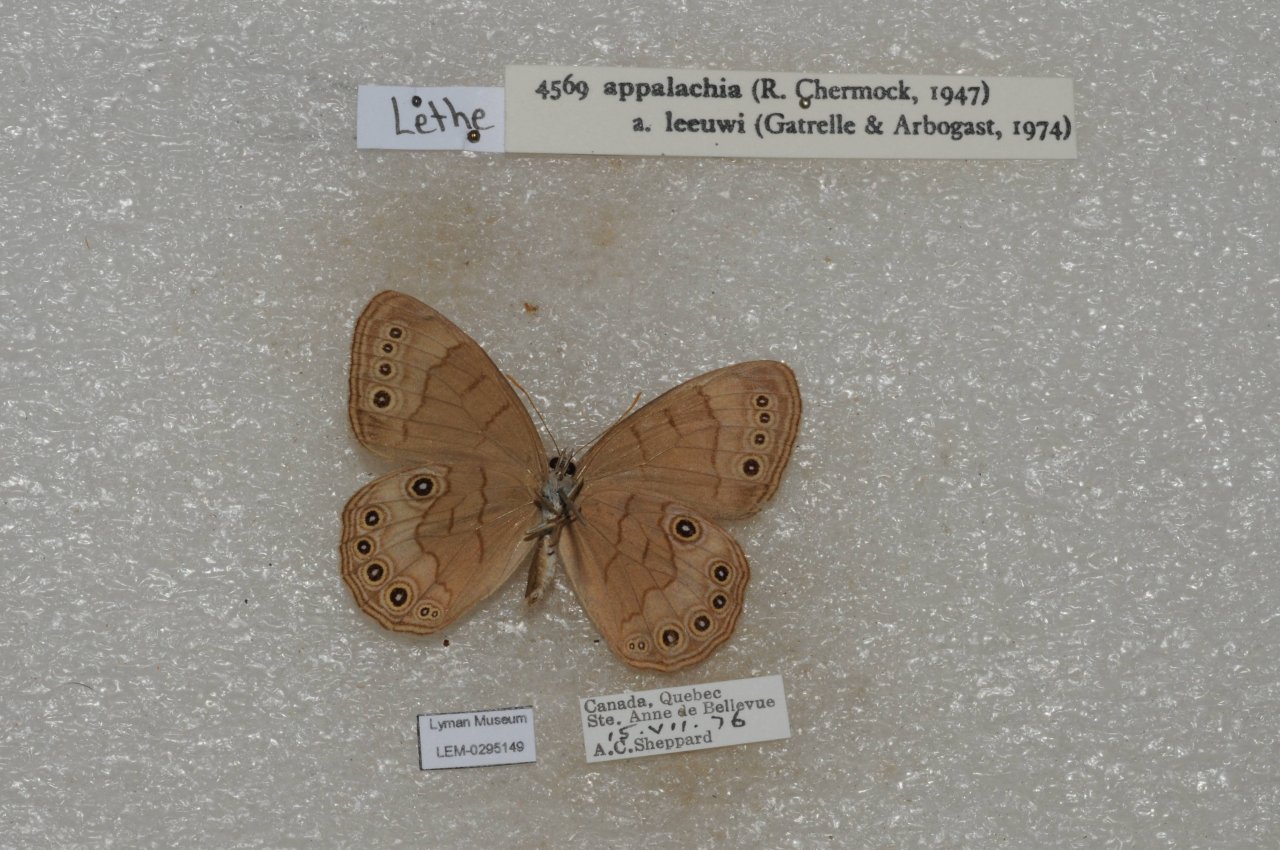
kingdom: Animalia
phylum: Arthropoda
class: Insecta
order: Lepidoptera
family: Nymphalidae
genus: Lethe
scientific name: Lethe eurydice
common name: Appalachian Eyed Brown
